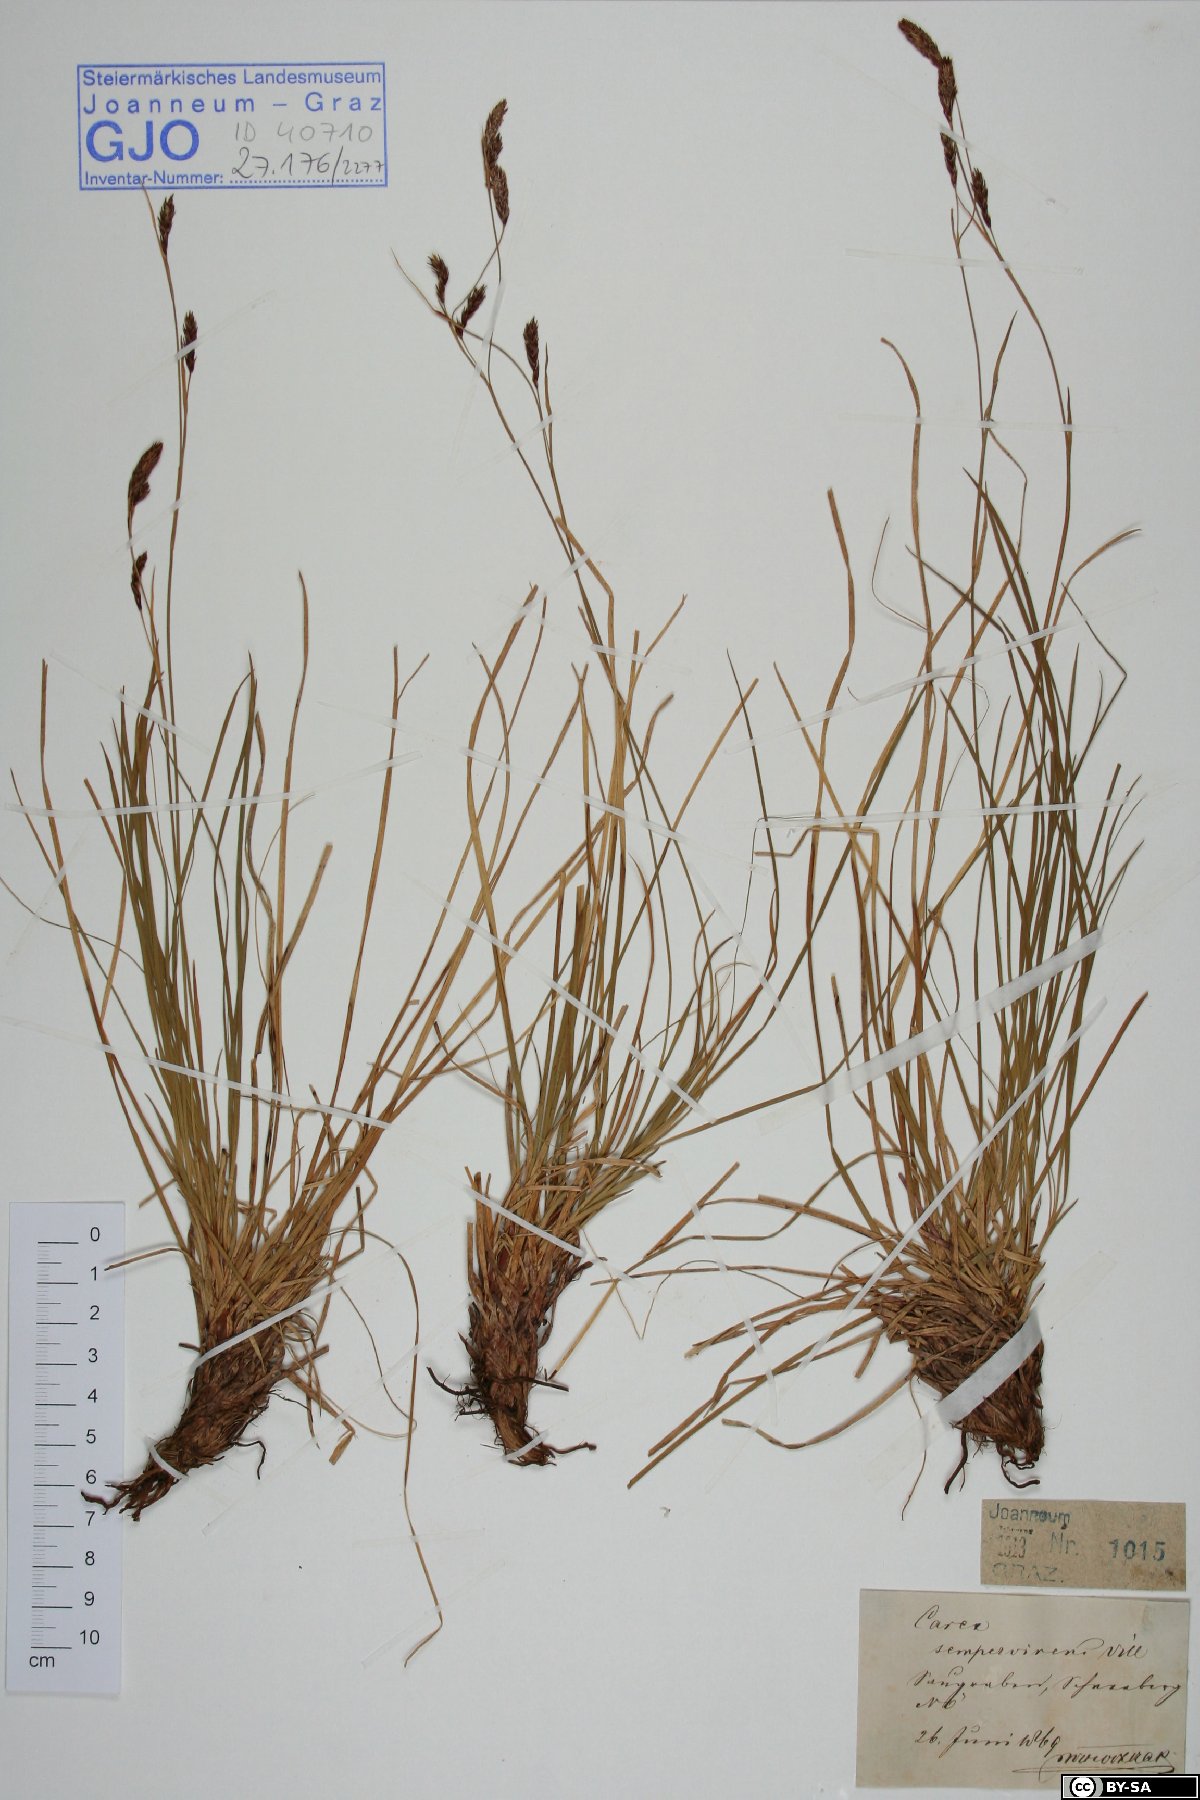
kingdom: Plantae
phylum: Tracheophyta
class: Liliopsida
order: Poales
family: Cyperaceae
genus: Carex
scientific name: Carex sempervirens
